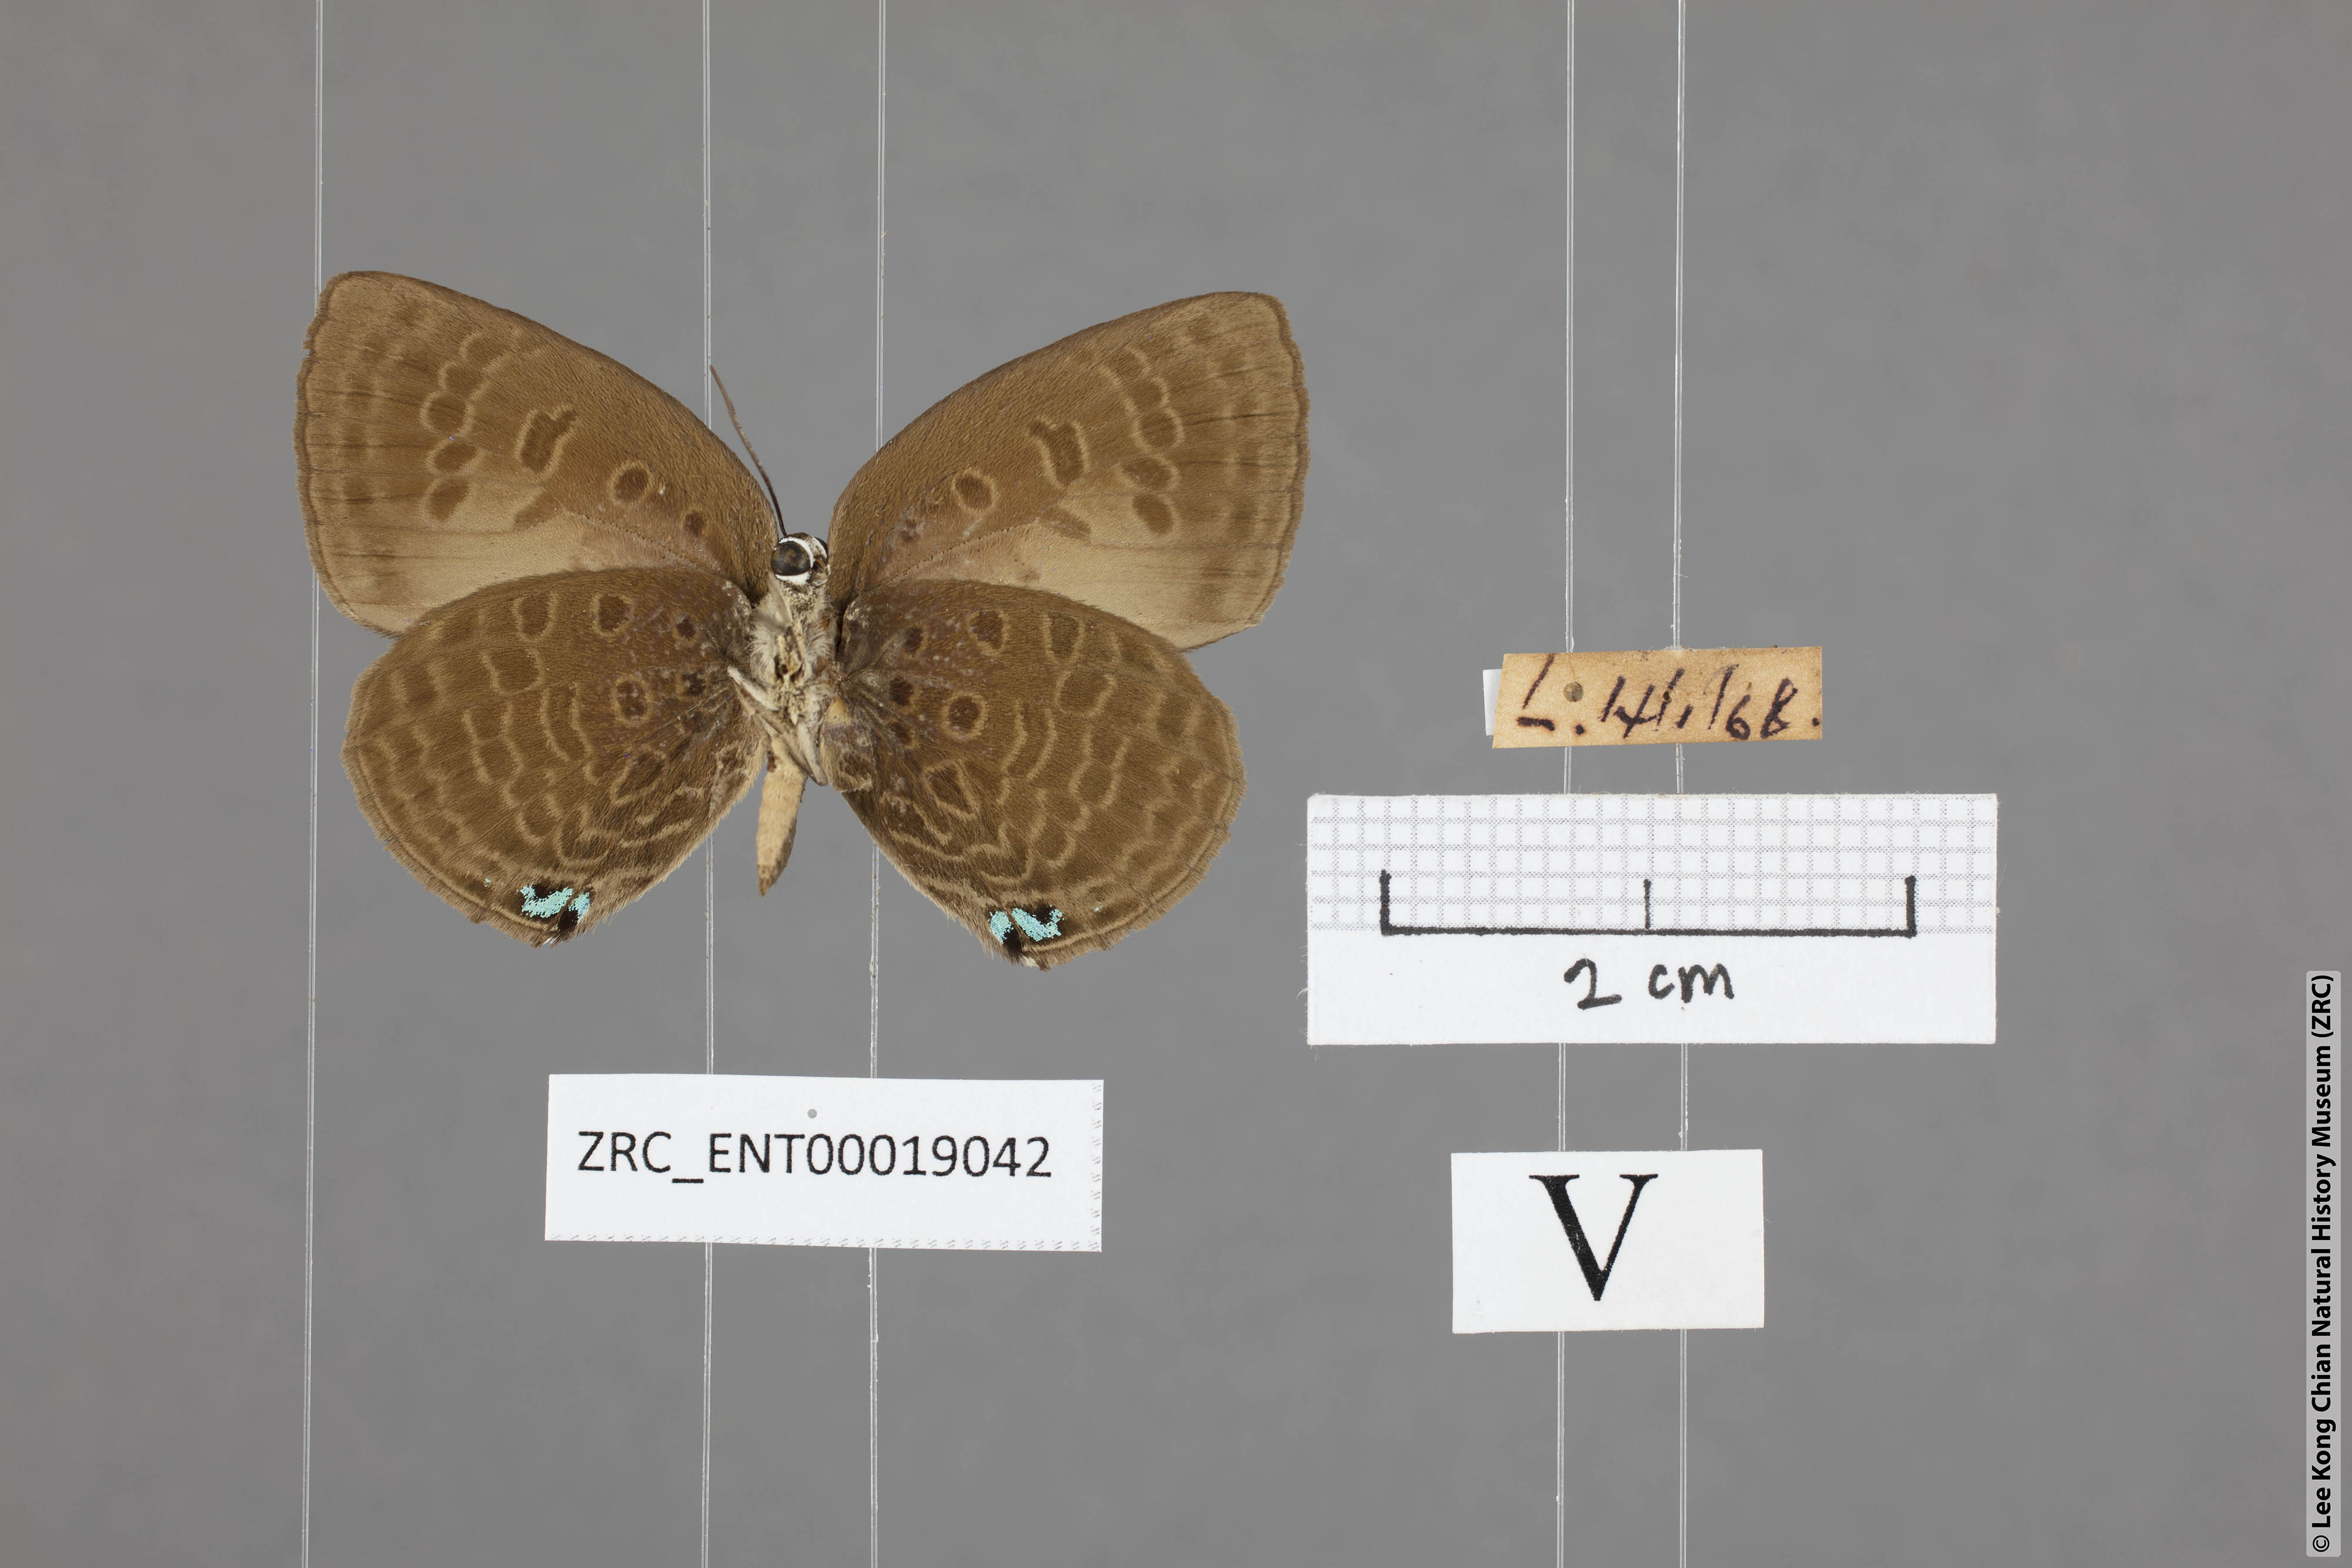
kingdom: Animalia
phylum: Arthropoda
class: Insecta
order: Lepidoptera
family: Lycaenidae
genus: Arhopala
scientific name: Arhopala agesilaus
